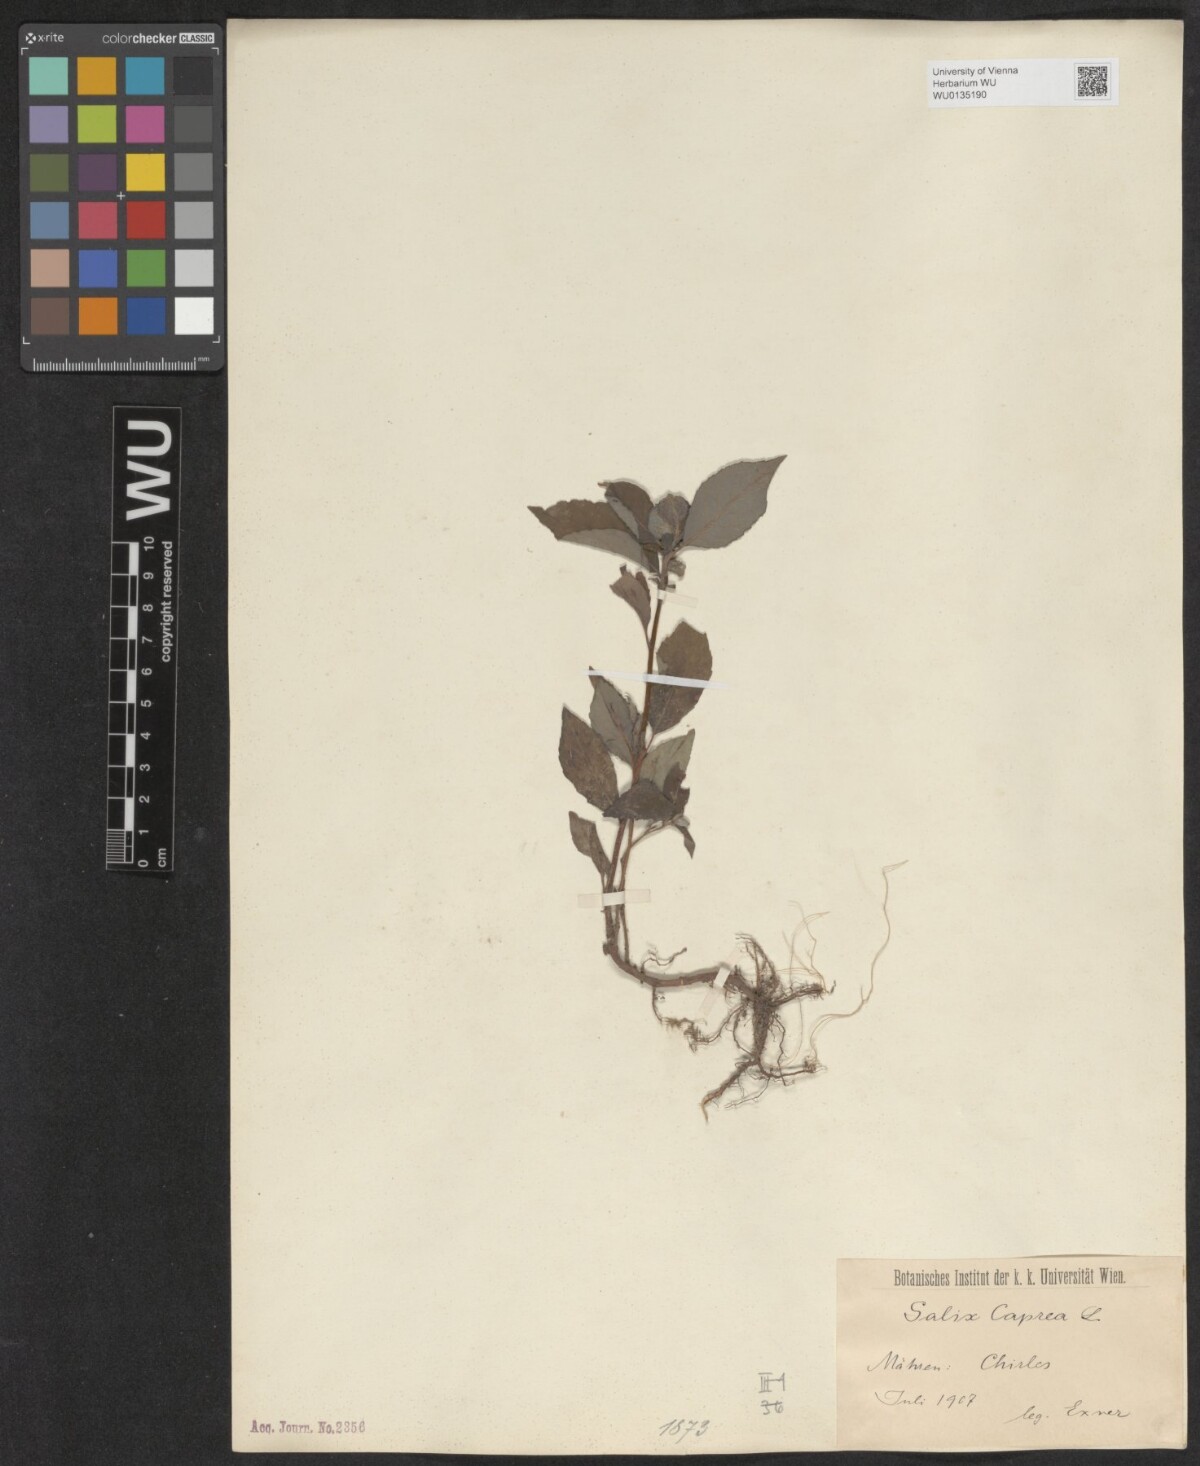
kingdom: Plantae
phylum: Tracheophyta
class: Magnoliopsida
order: Malpighiales
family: Salicaceae
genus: Salix
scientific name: Salix caprea
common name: Goat willow
